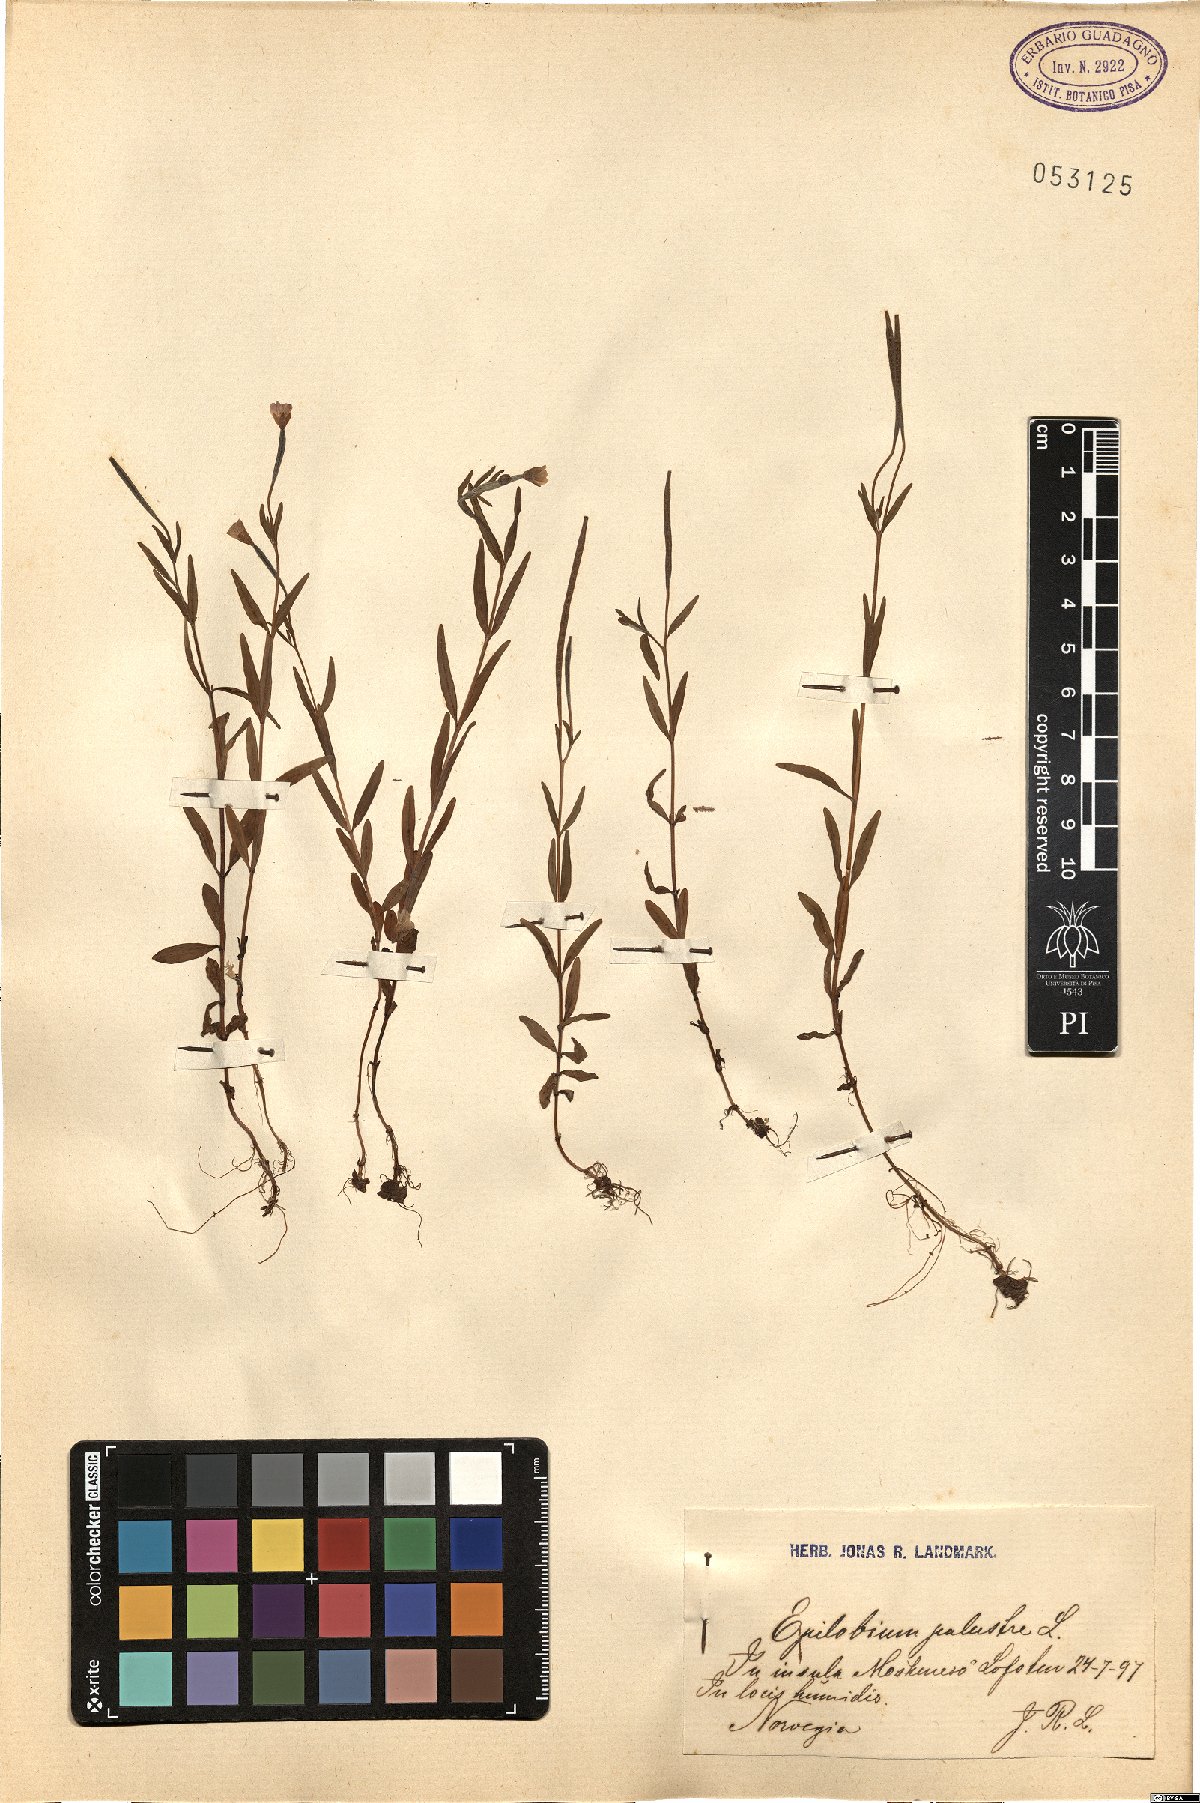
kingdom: Plantae
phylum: Tracheophyta
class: Magnoliopsida
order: Myrtales
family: Onagraceae
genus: Epilobium
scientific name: Epilobium palustre
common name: Marsh willowherb
